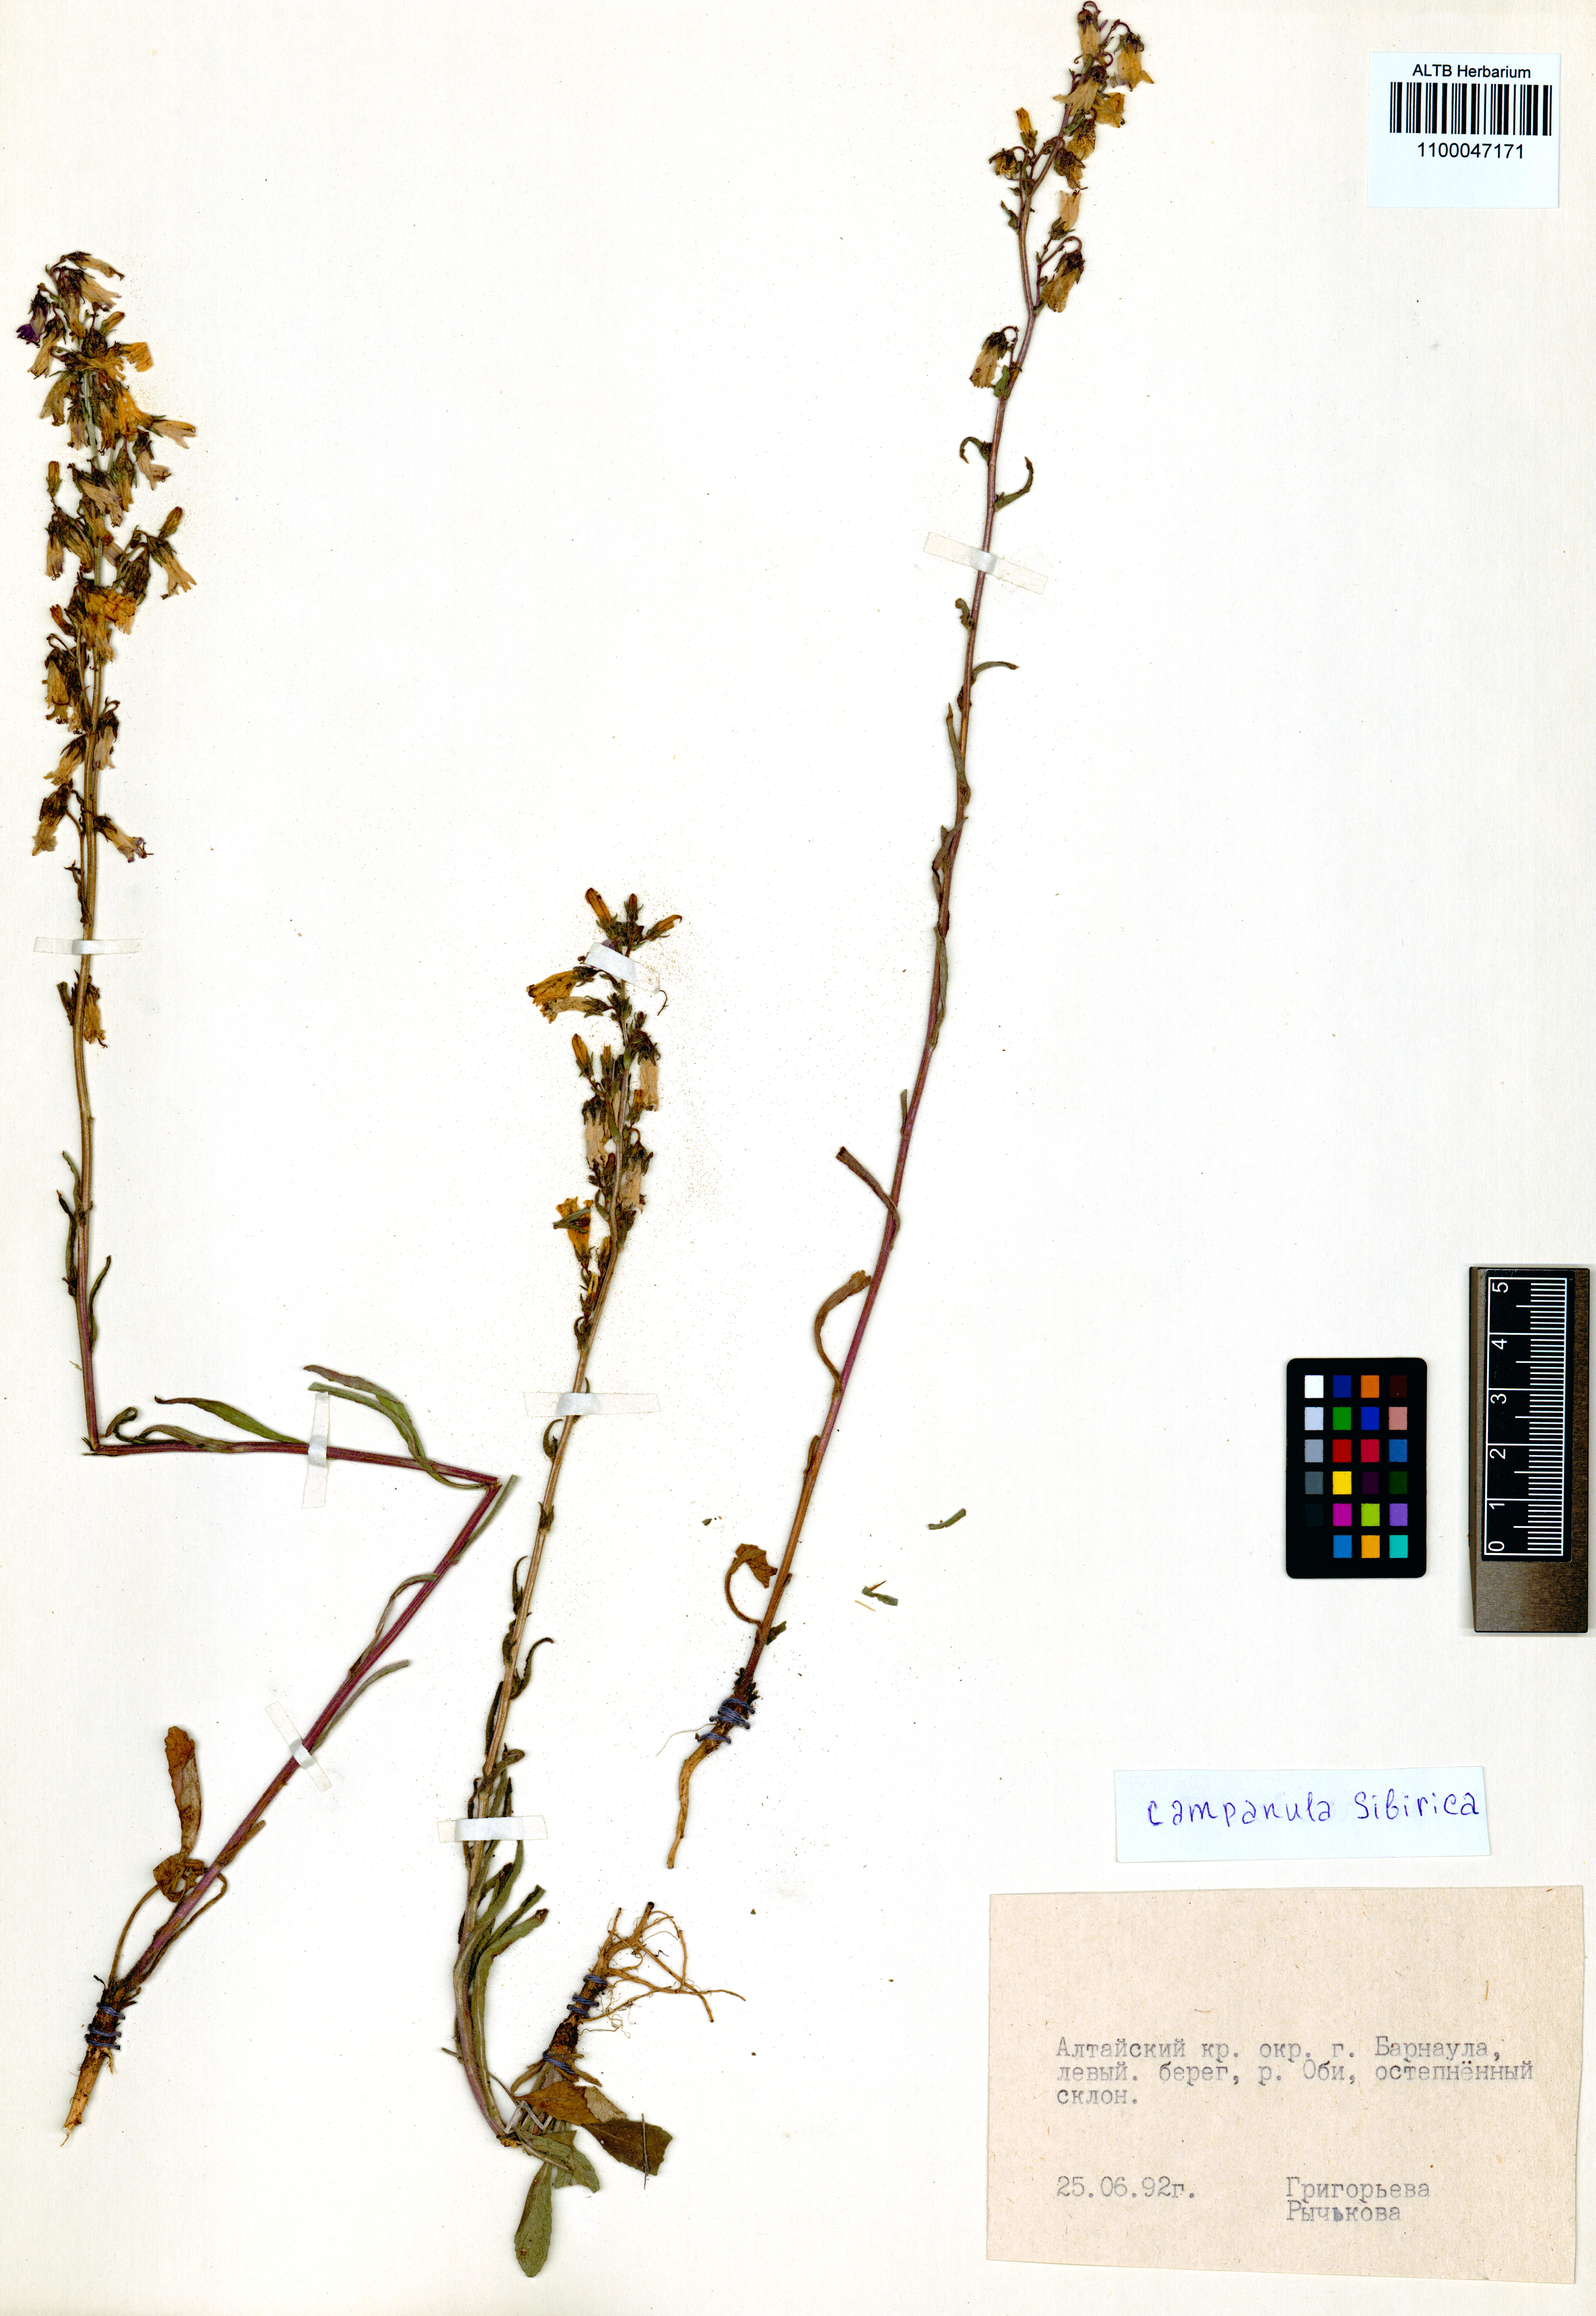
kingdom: Plantae
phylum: Tracheophyta
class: Magnoliopsida
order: Asterales
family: Campanulaceae
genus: Campanula
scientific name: Campanula sibirica
